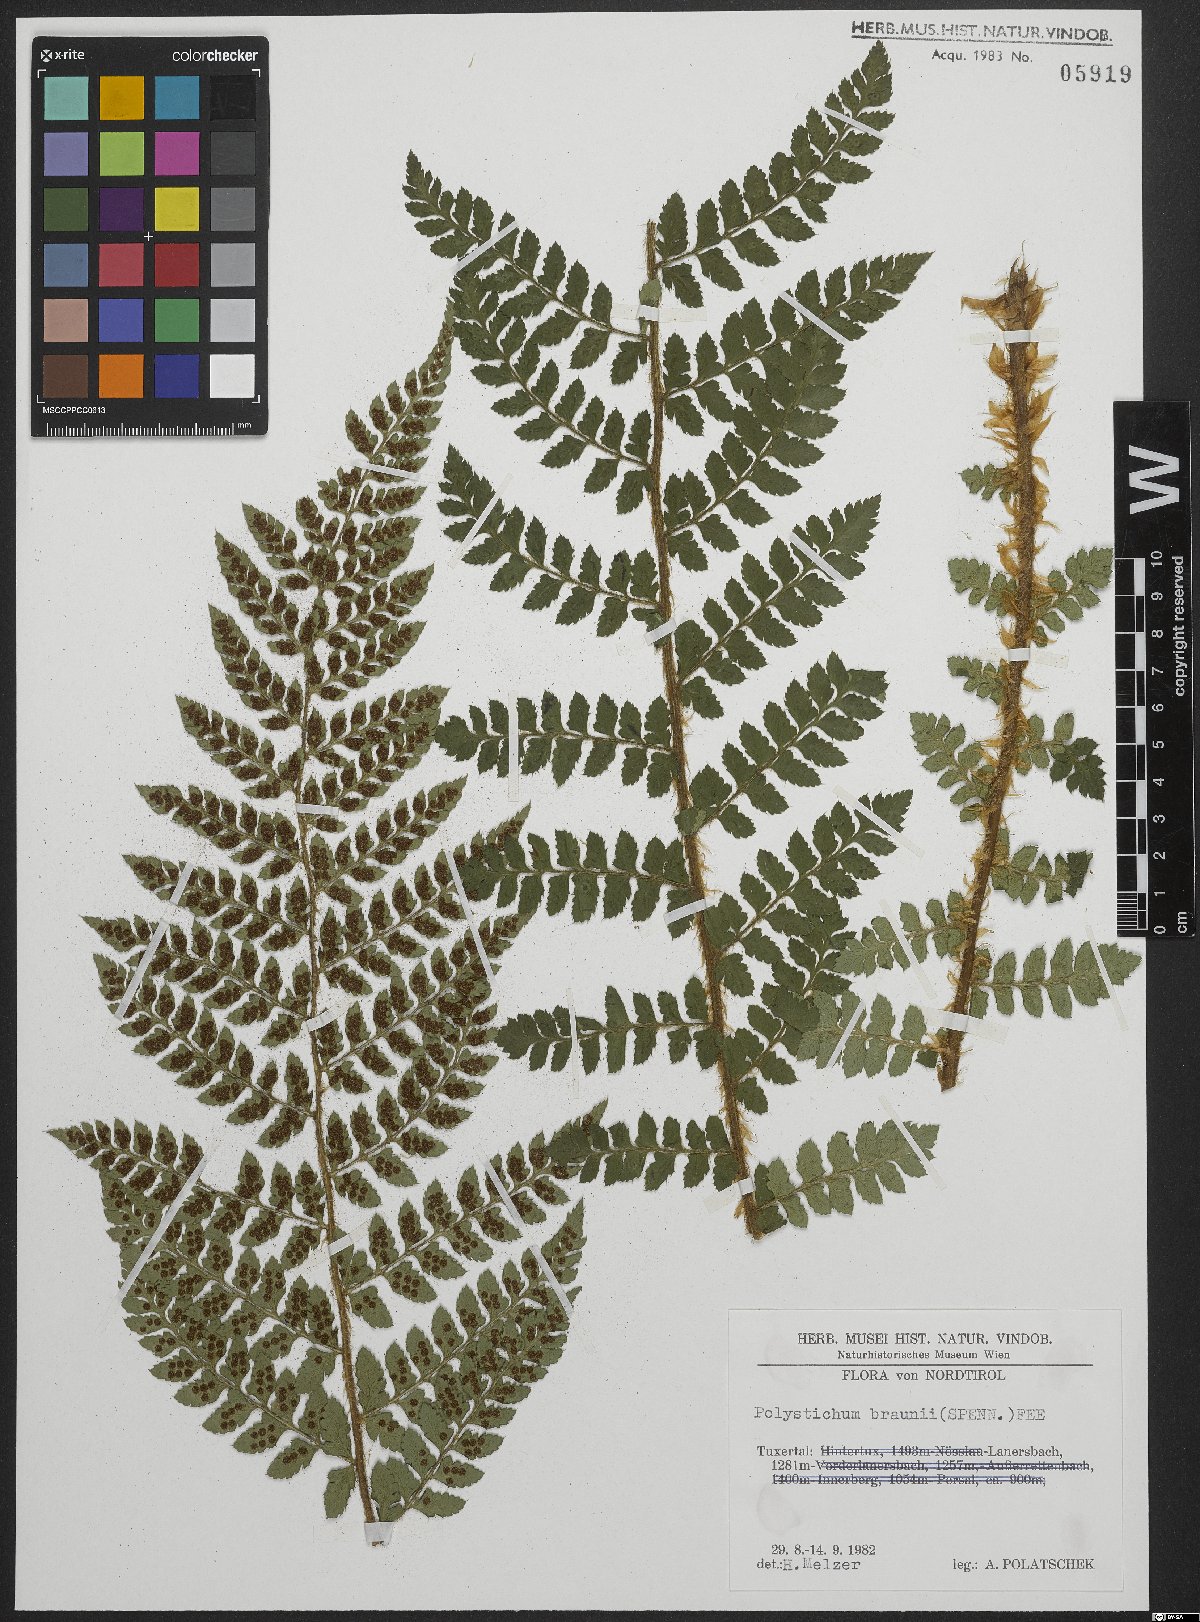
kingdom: Plantae
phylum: Tracheophyta
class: Polypodiopsida
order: Polypodiales
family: Dryopteridaceae
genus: Polystichum
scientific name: Polystichum braunii
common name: Braun's holly fern
